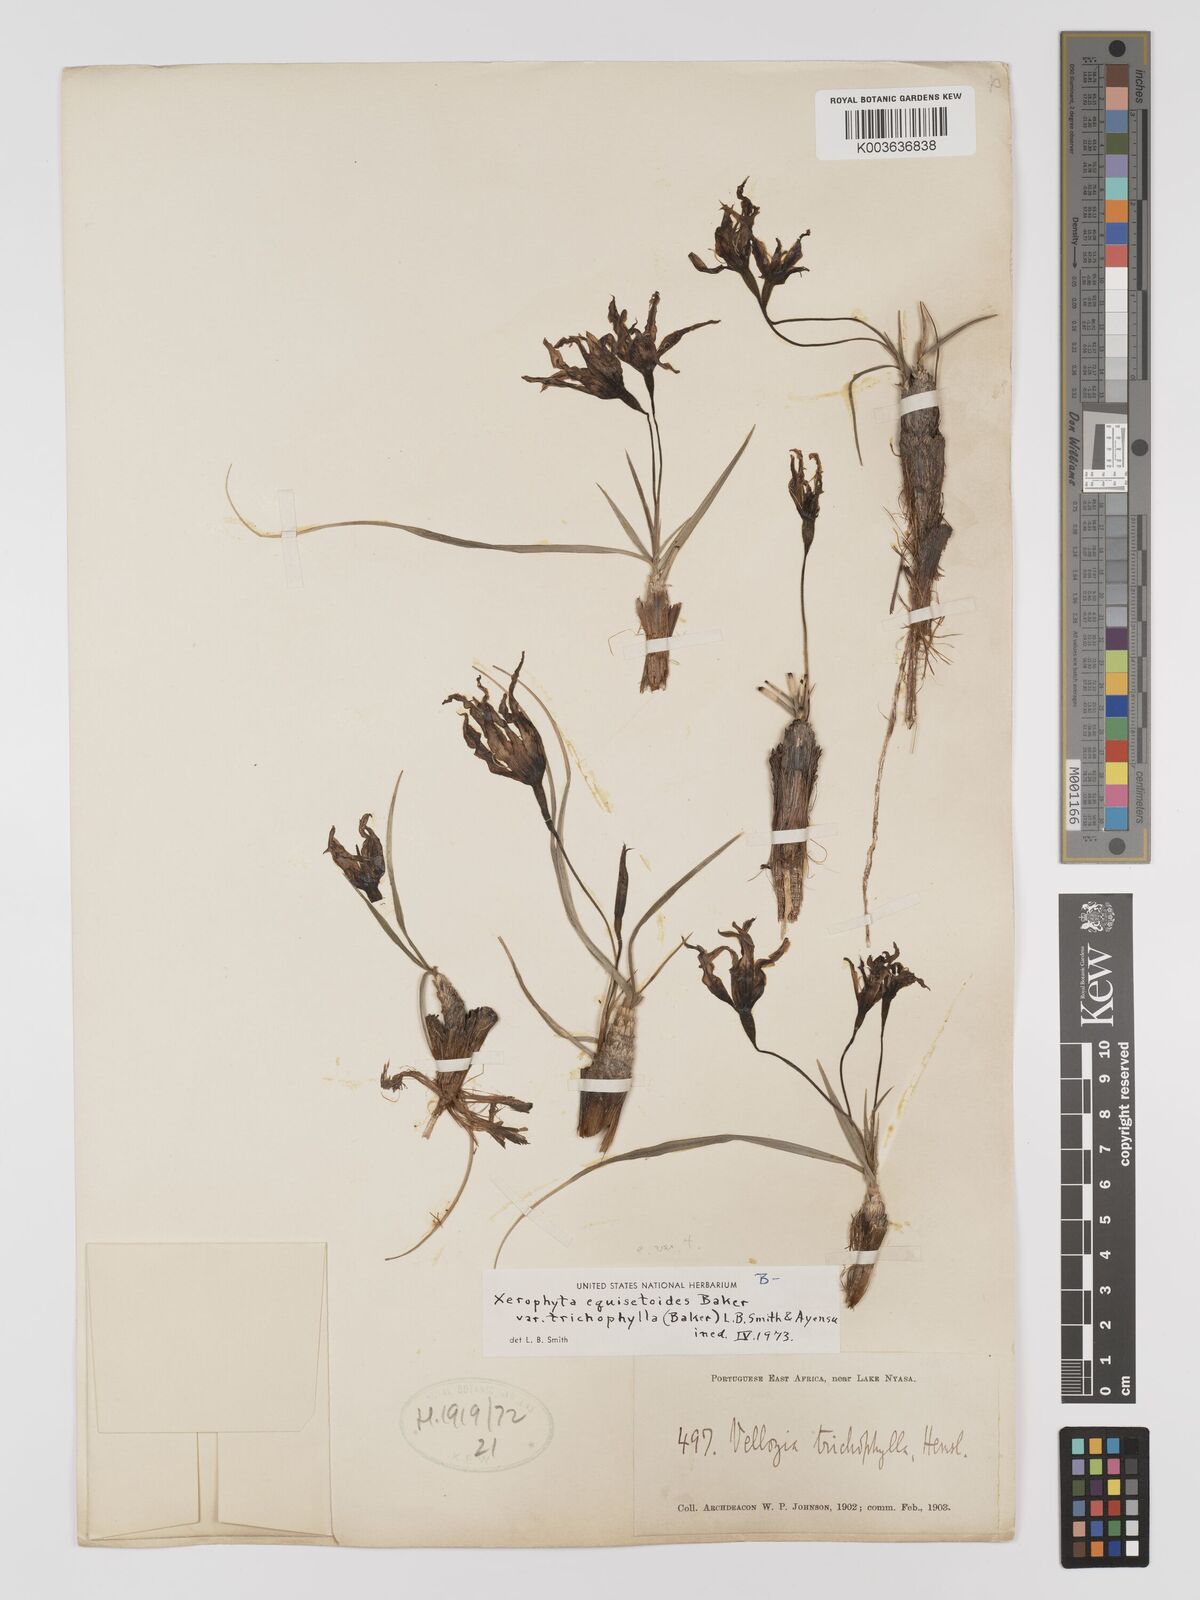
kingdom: Plantae
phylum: Tracheophyta
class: Liliopsida
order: Pandanales
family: Velloziaceae
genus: Xerophyta
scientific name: Xerophyta trichophylla
